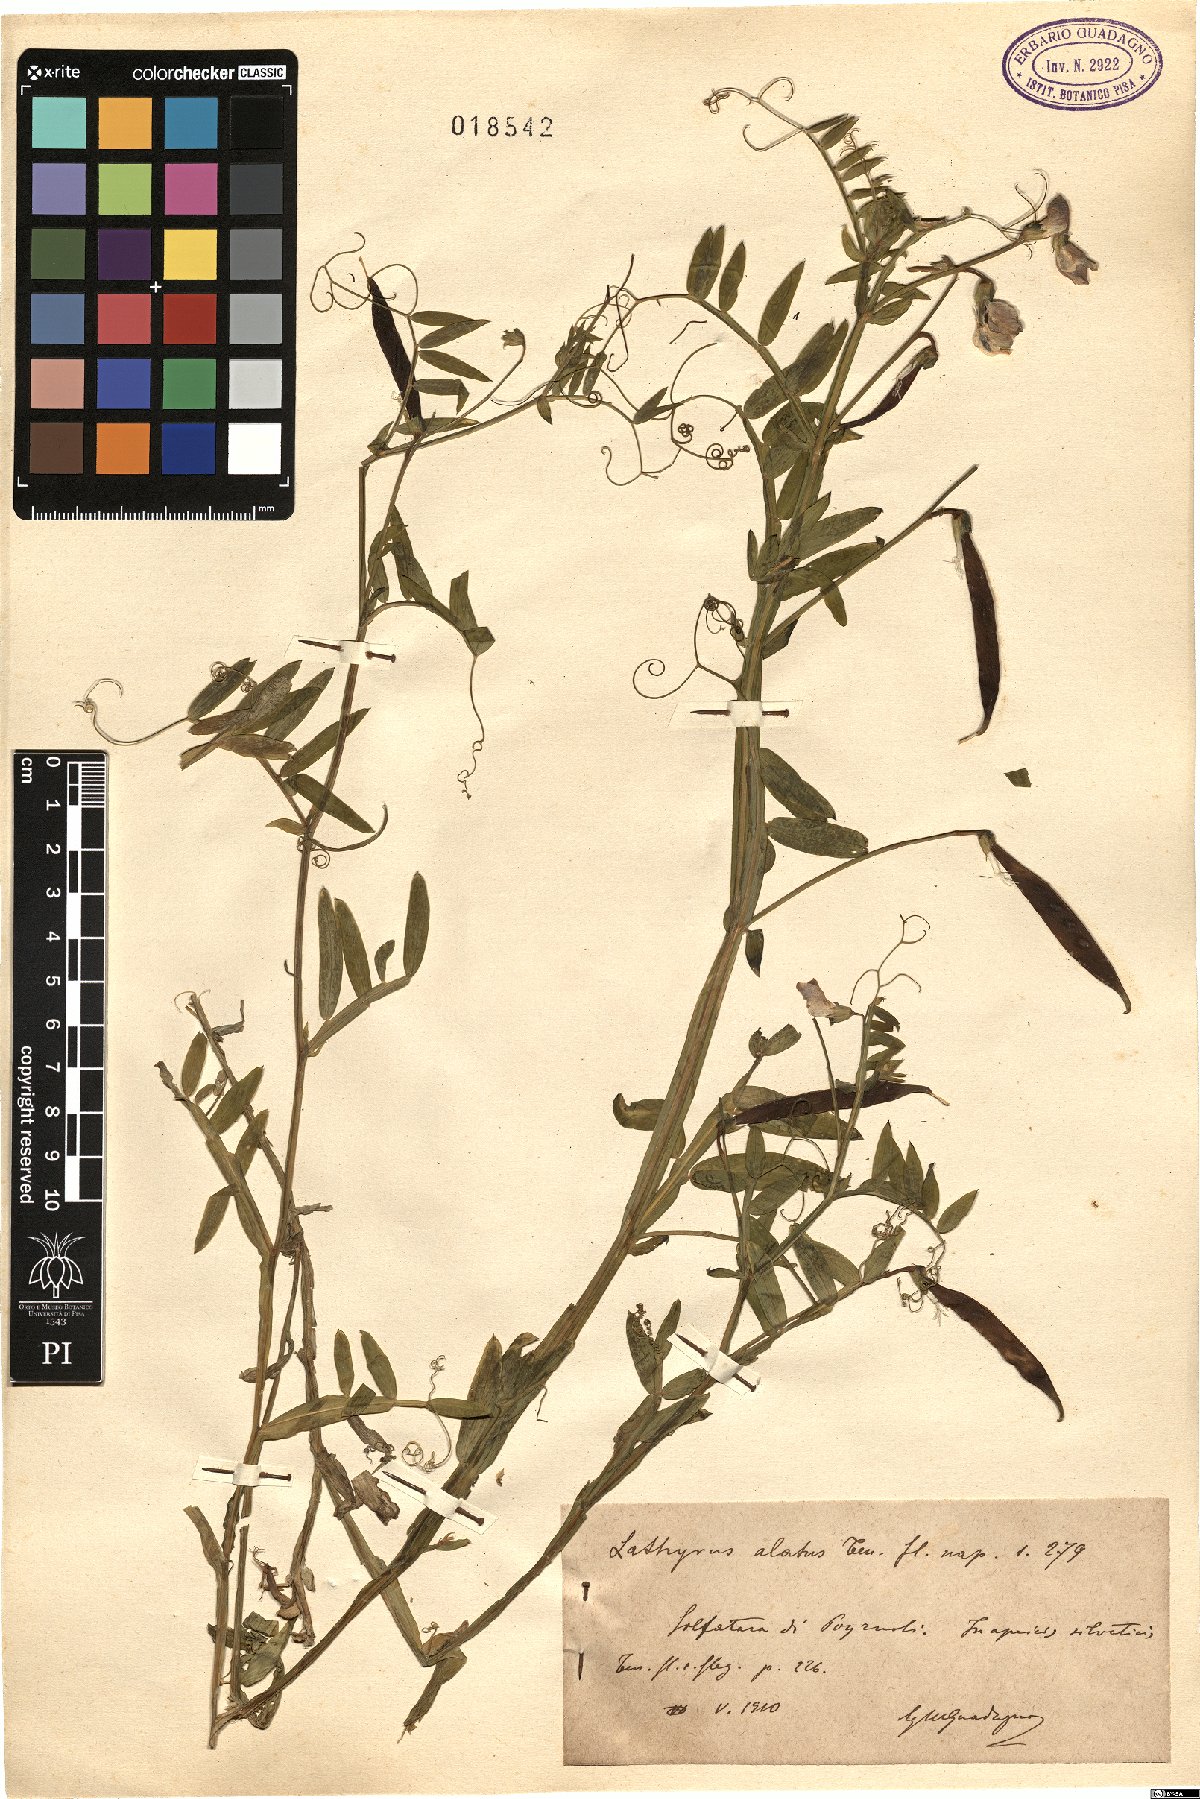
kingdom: Plantae
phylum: Tracheophyta
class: Magnoliopsida
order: Fabales
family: Fabaceae
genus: Lathyrus
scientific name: Lathyrus komarovii
